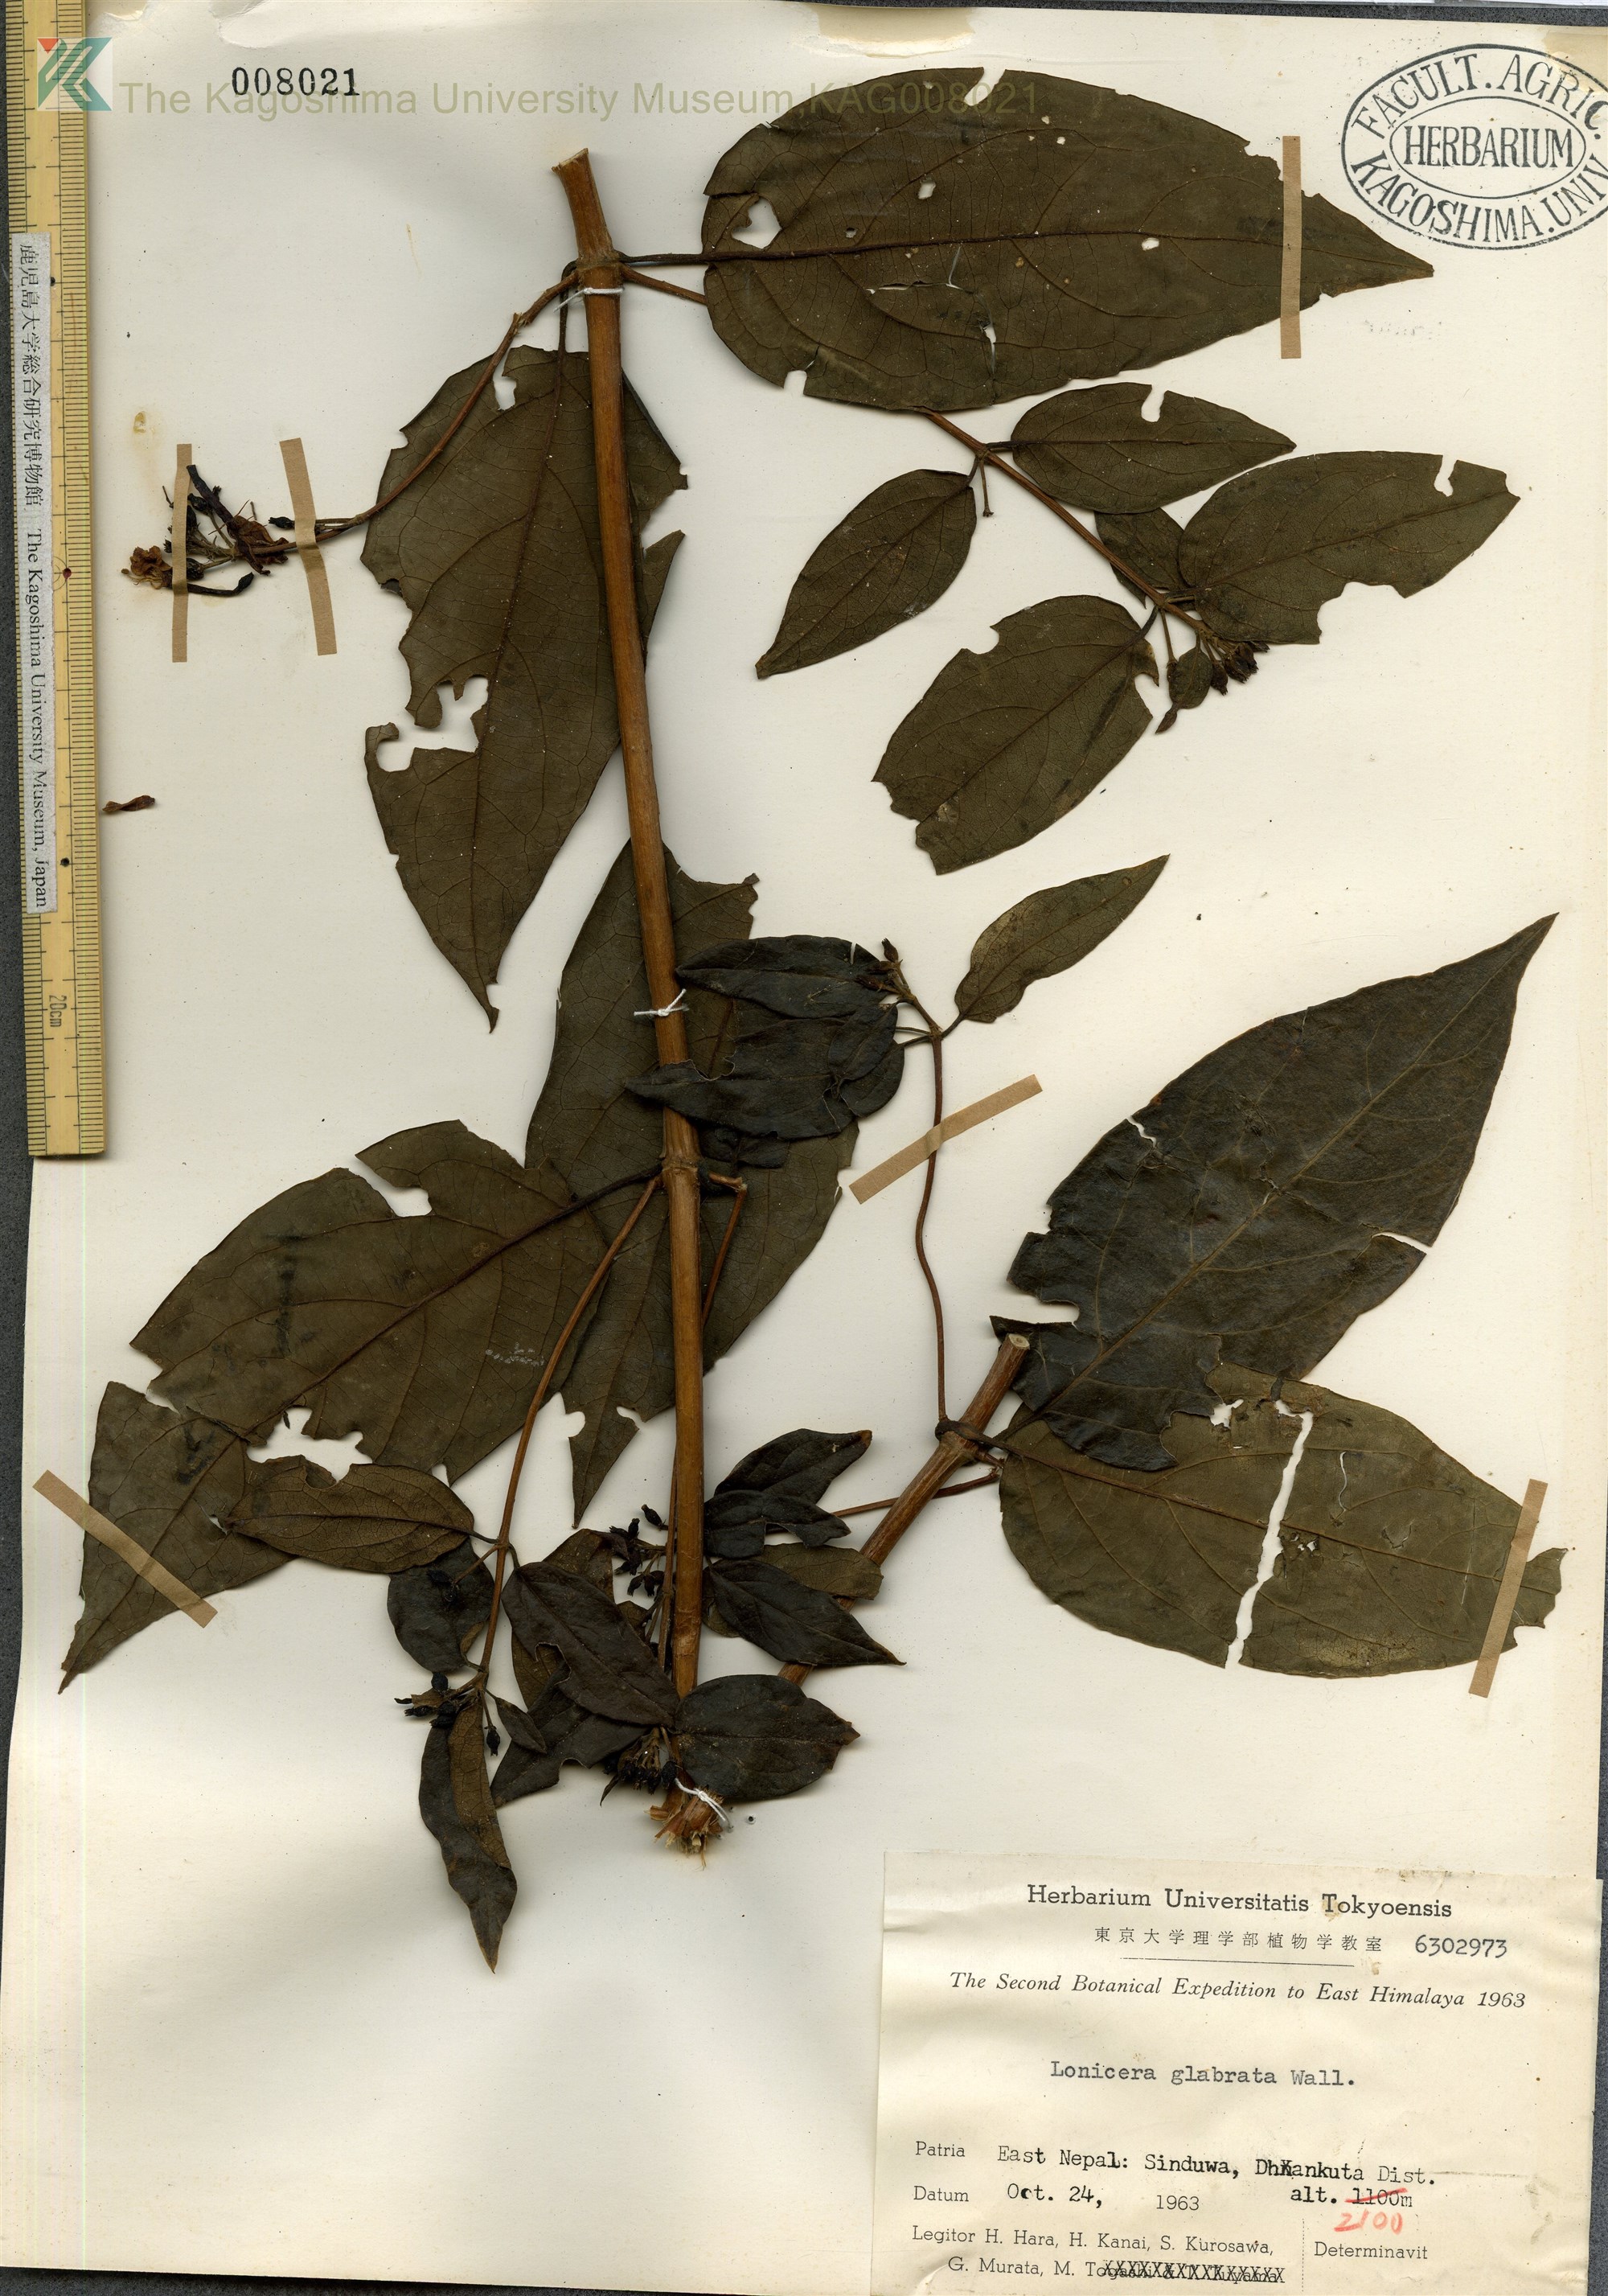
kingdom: Plantae
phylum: Tracheophyta
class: Magnoliopsida
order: Dipsacales
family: Caprifoliaceae
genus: Lonicera
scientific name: Lonicera glabrata
